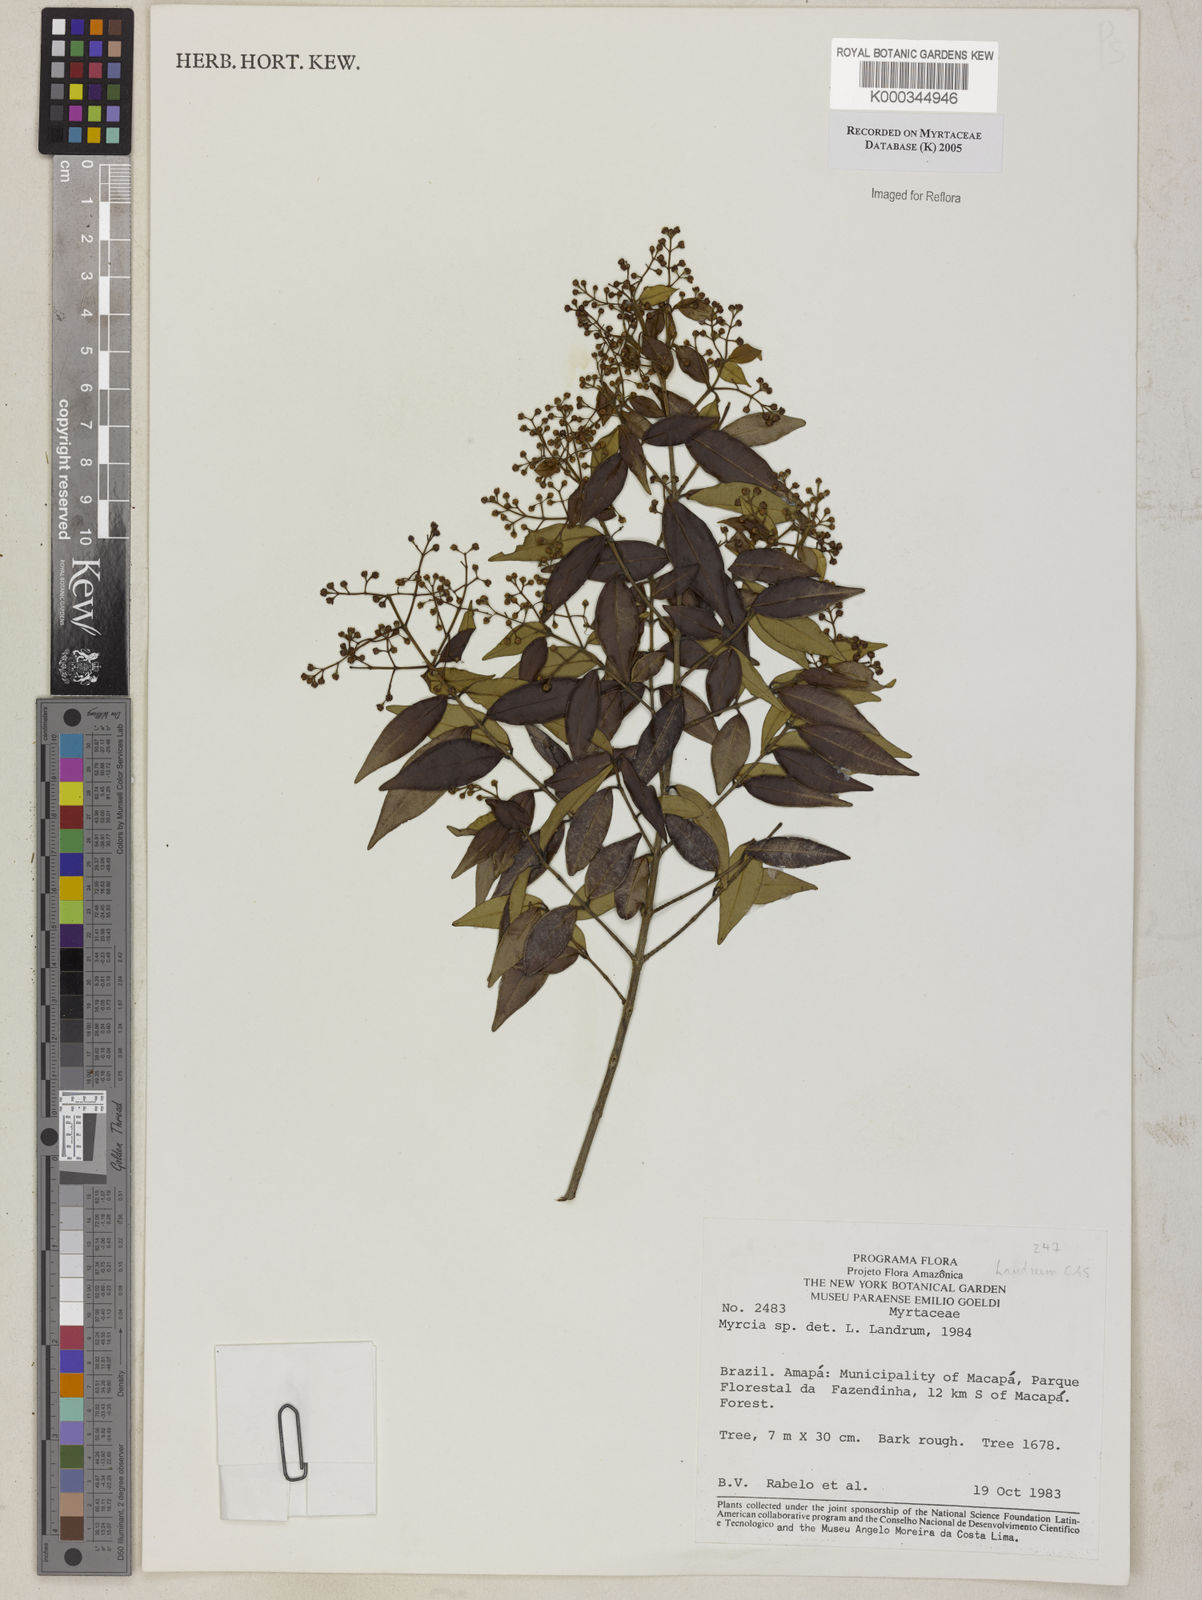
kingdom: Plantae
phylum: Tracheophyta
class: Magnoliopsida
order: Myrtales
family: Myrtaceae
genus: Myrcia
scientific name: Myrcia
